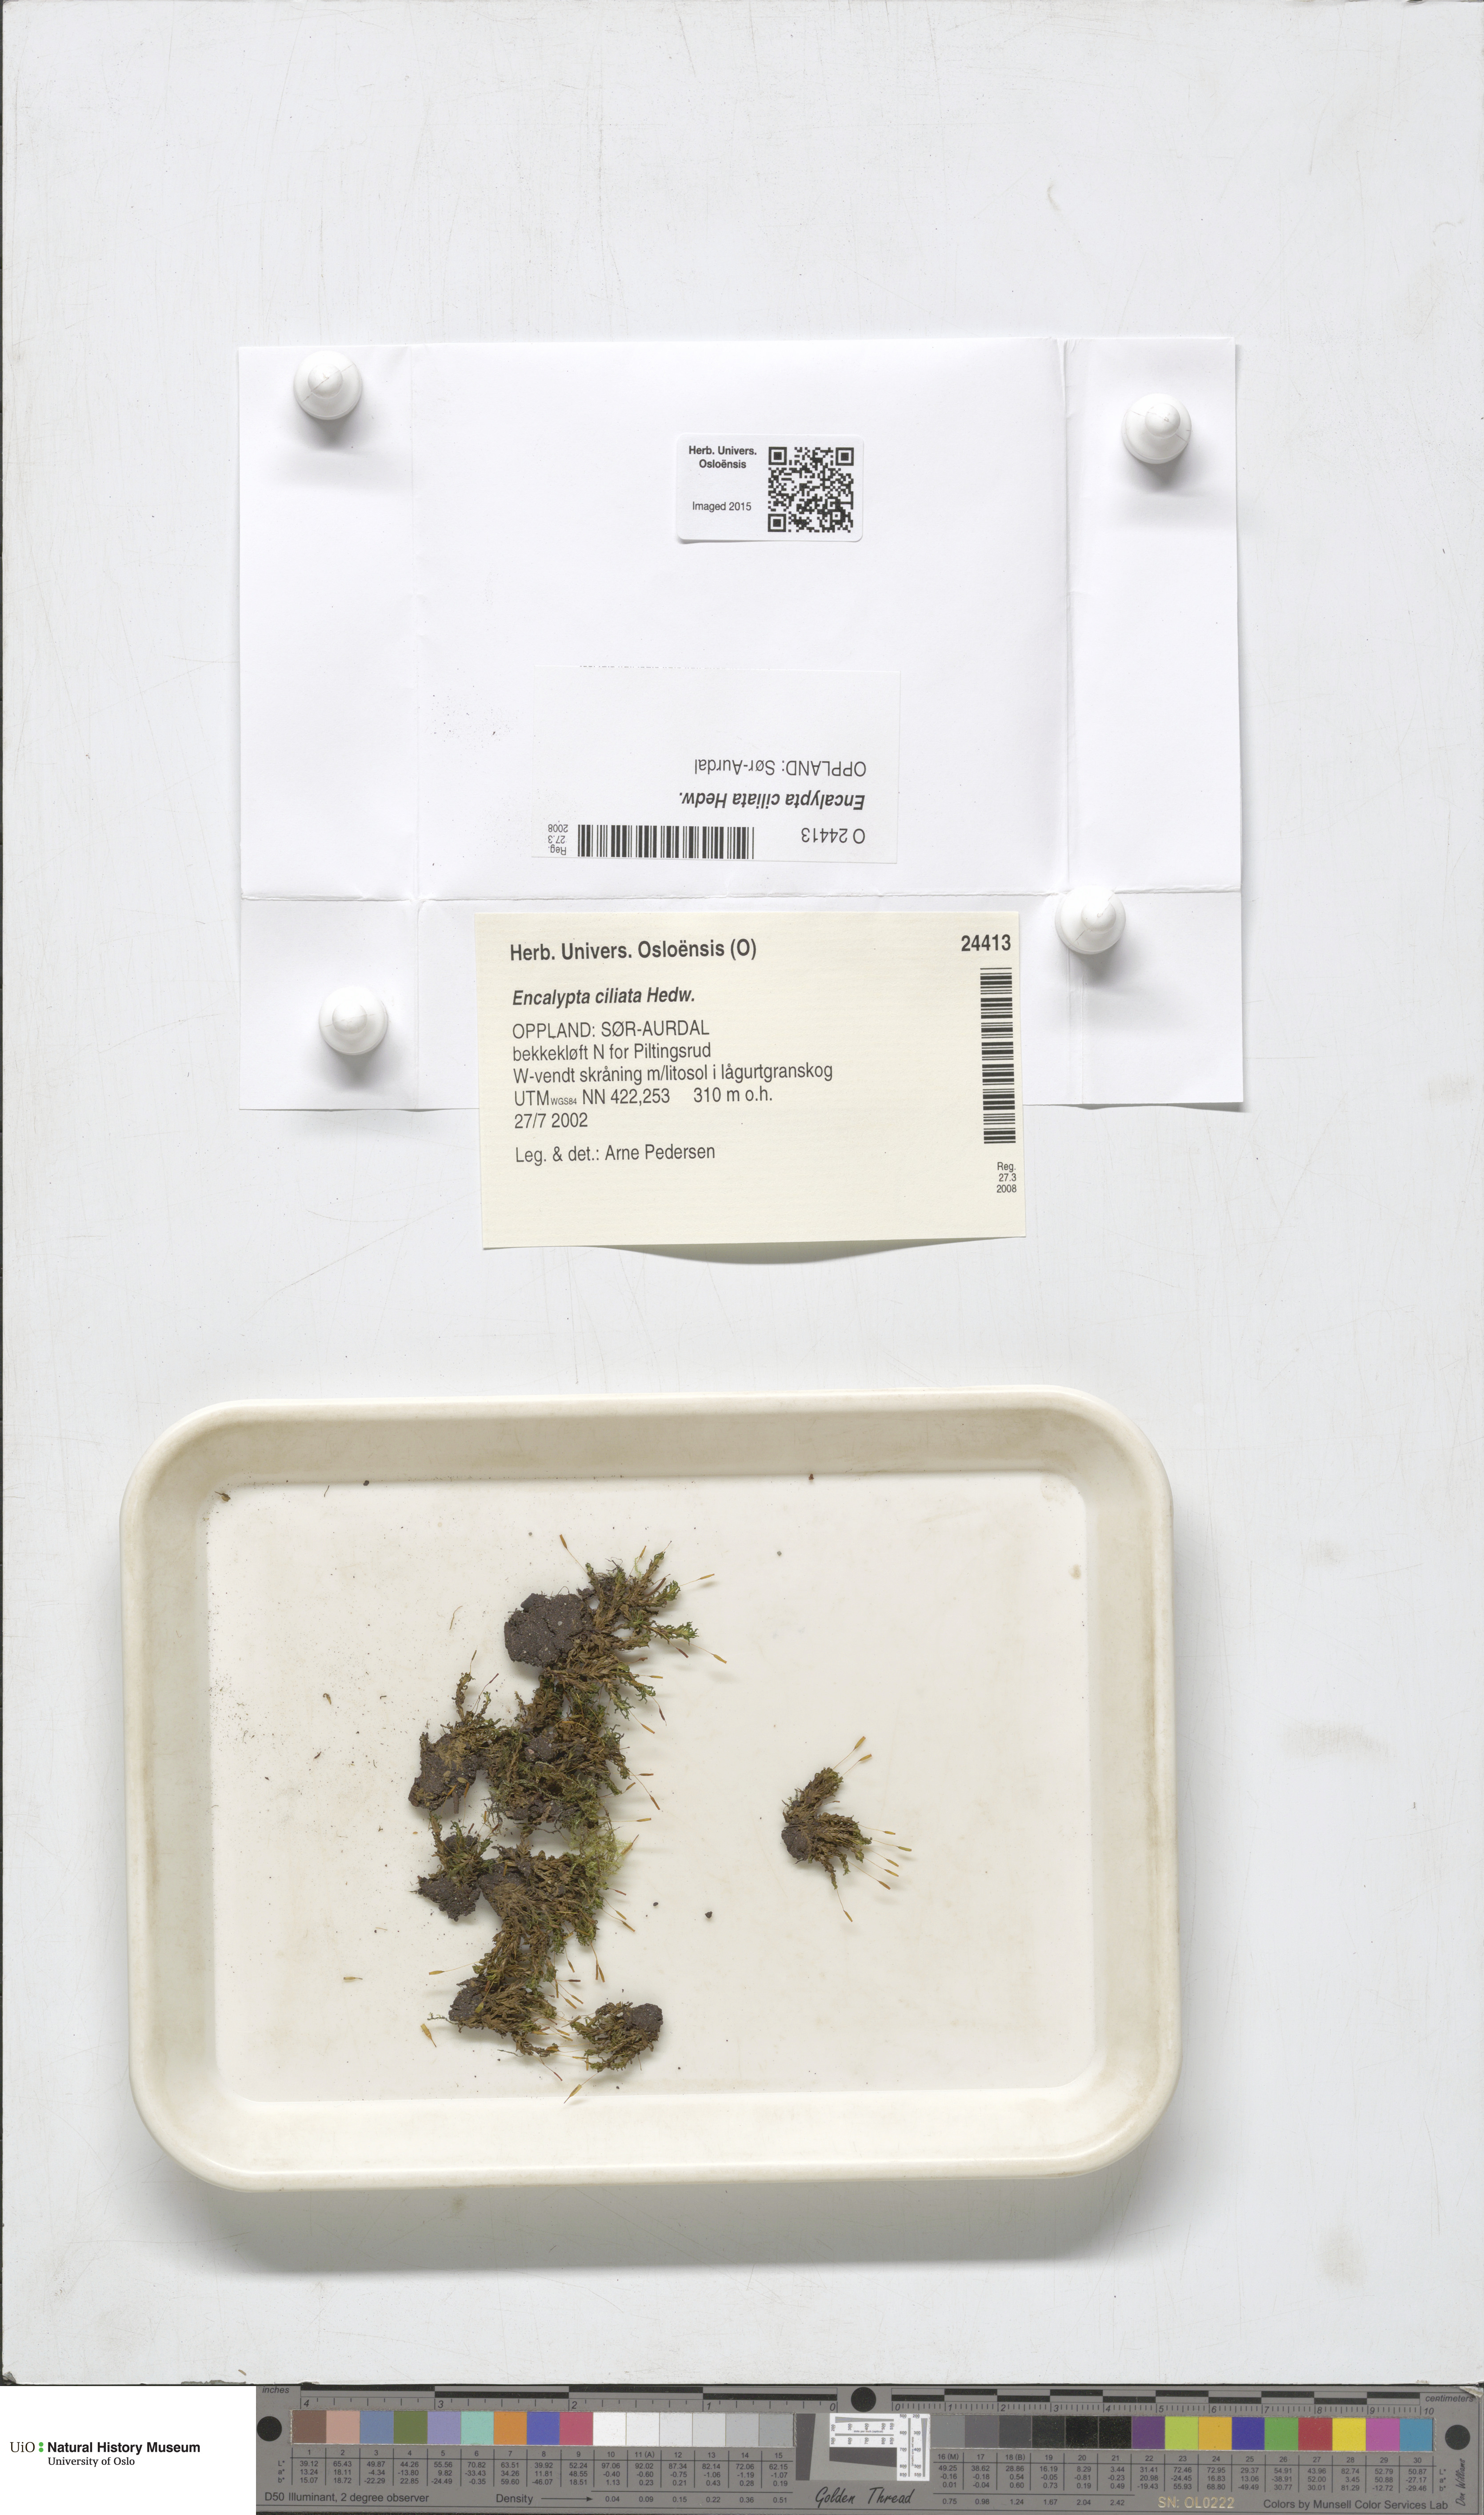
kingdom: Plantae
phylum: Bryophyta
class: Bryopsida
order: Encalyptales
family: Encalyptaceae
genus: Encalypta
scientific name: Encalypta ciliata
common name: Fringed extinguisher-moss
